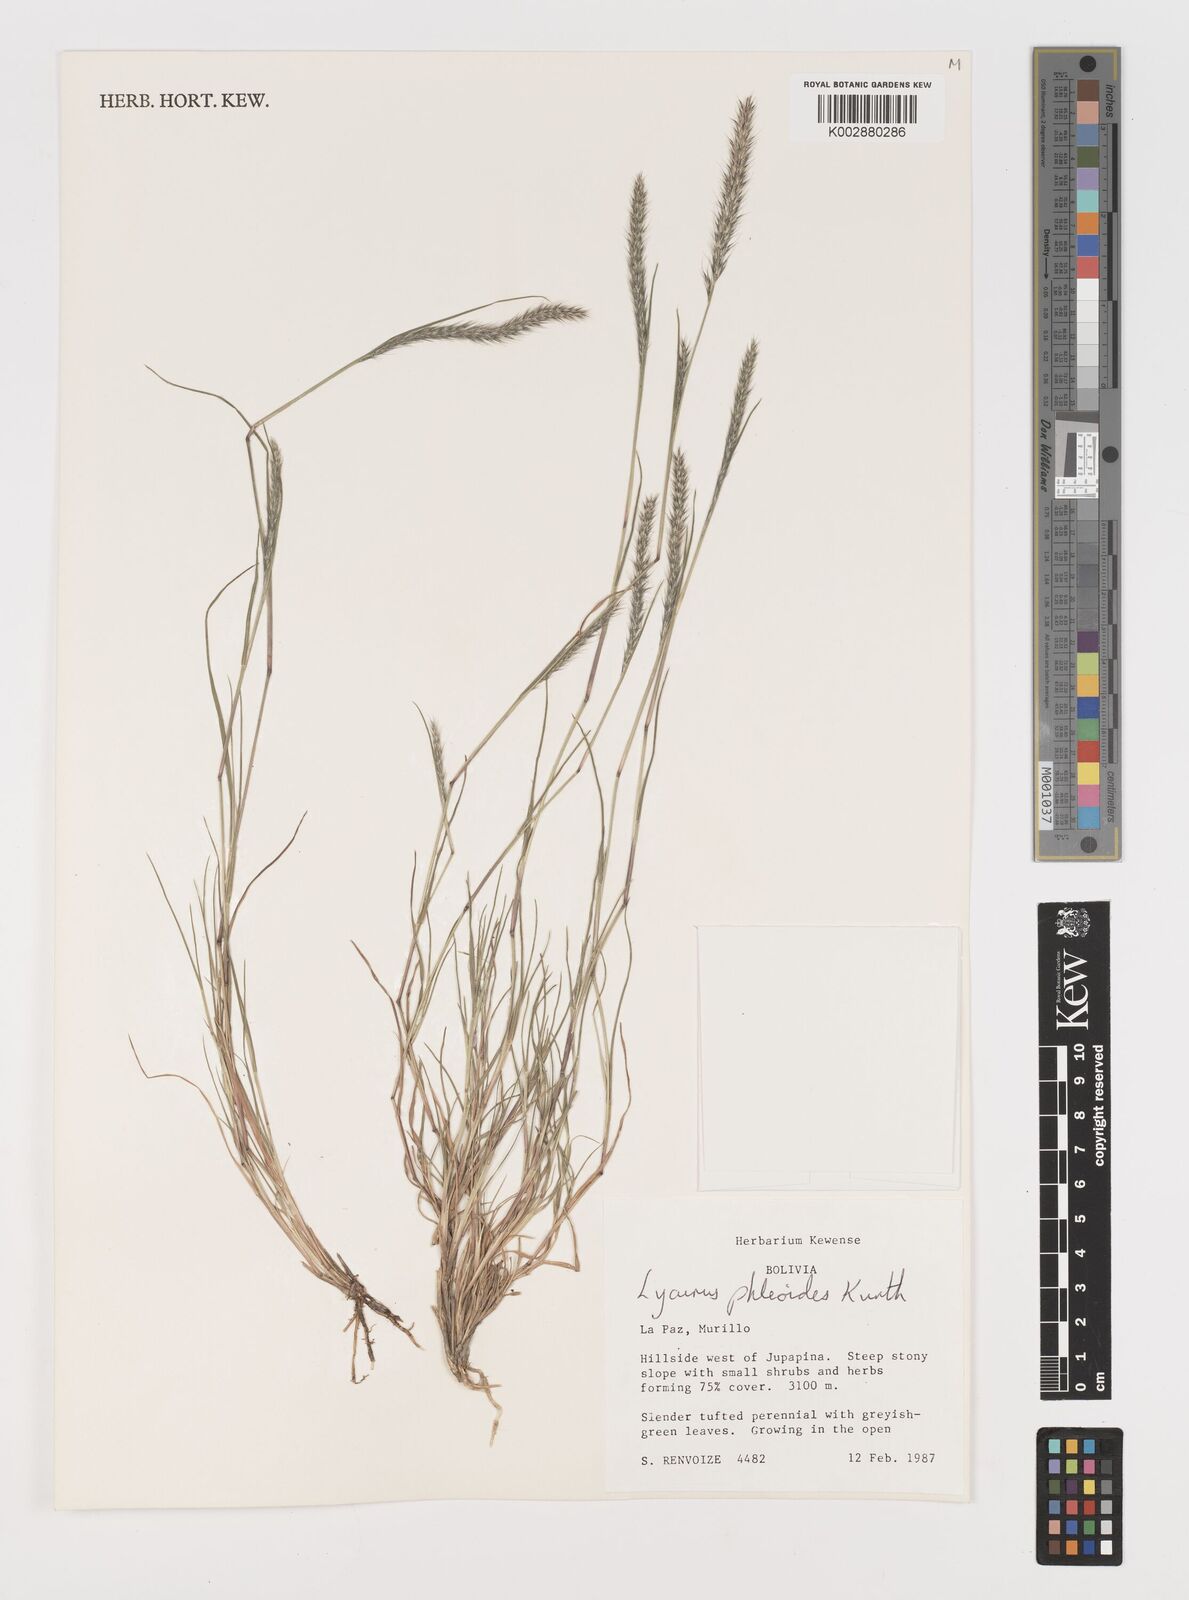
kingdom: Plantae
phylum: Tracheophyta
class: Liliopsida
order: Poales
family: Poaceae
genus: Muhlenbergia
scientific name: Muhlenbergia phleoides
